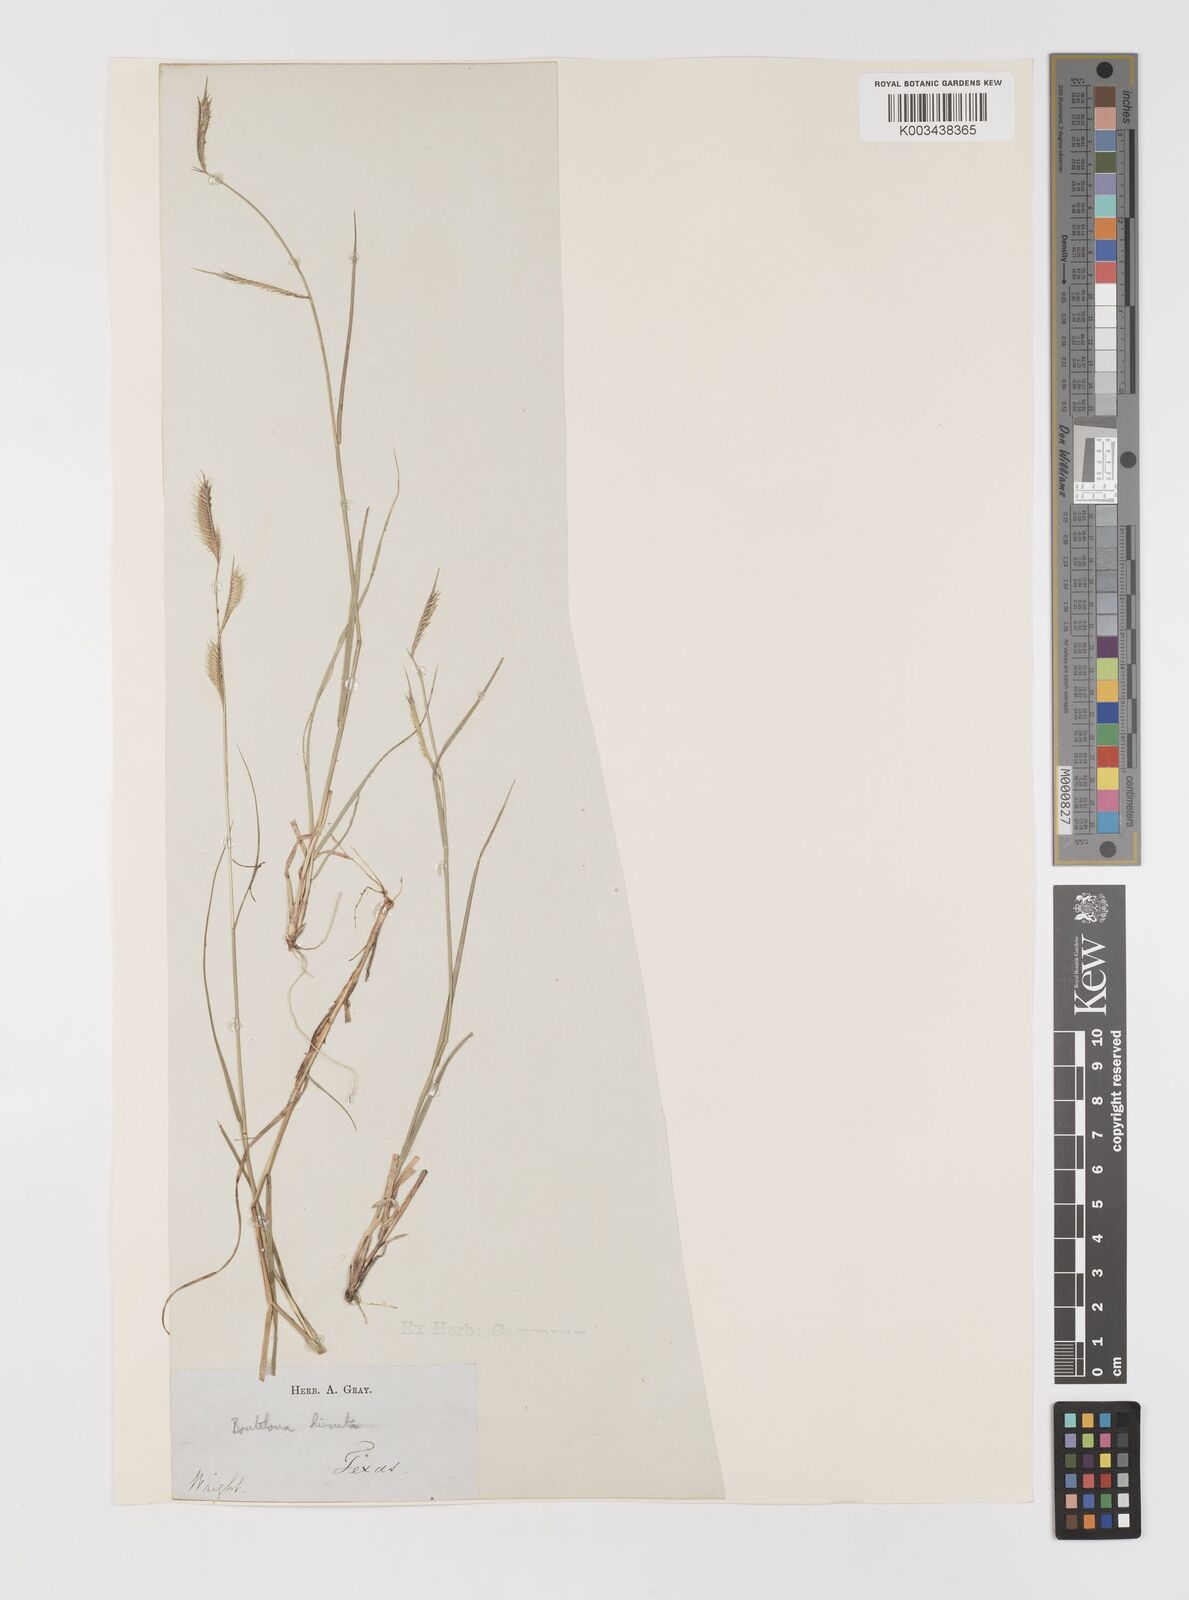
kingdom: Plantae
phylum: Tracheophyta
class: Liliopsida
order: Poales
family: Poaceae
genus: Bouteloua
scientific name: Bouteloua hirsuta
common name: Hairy grama
